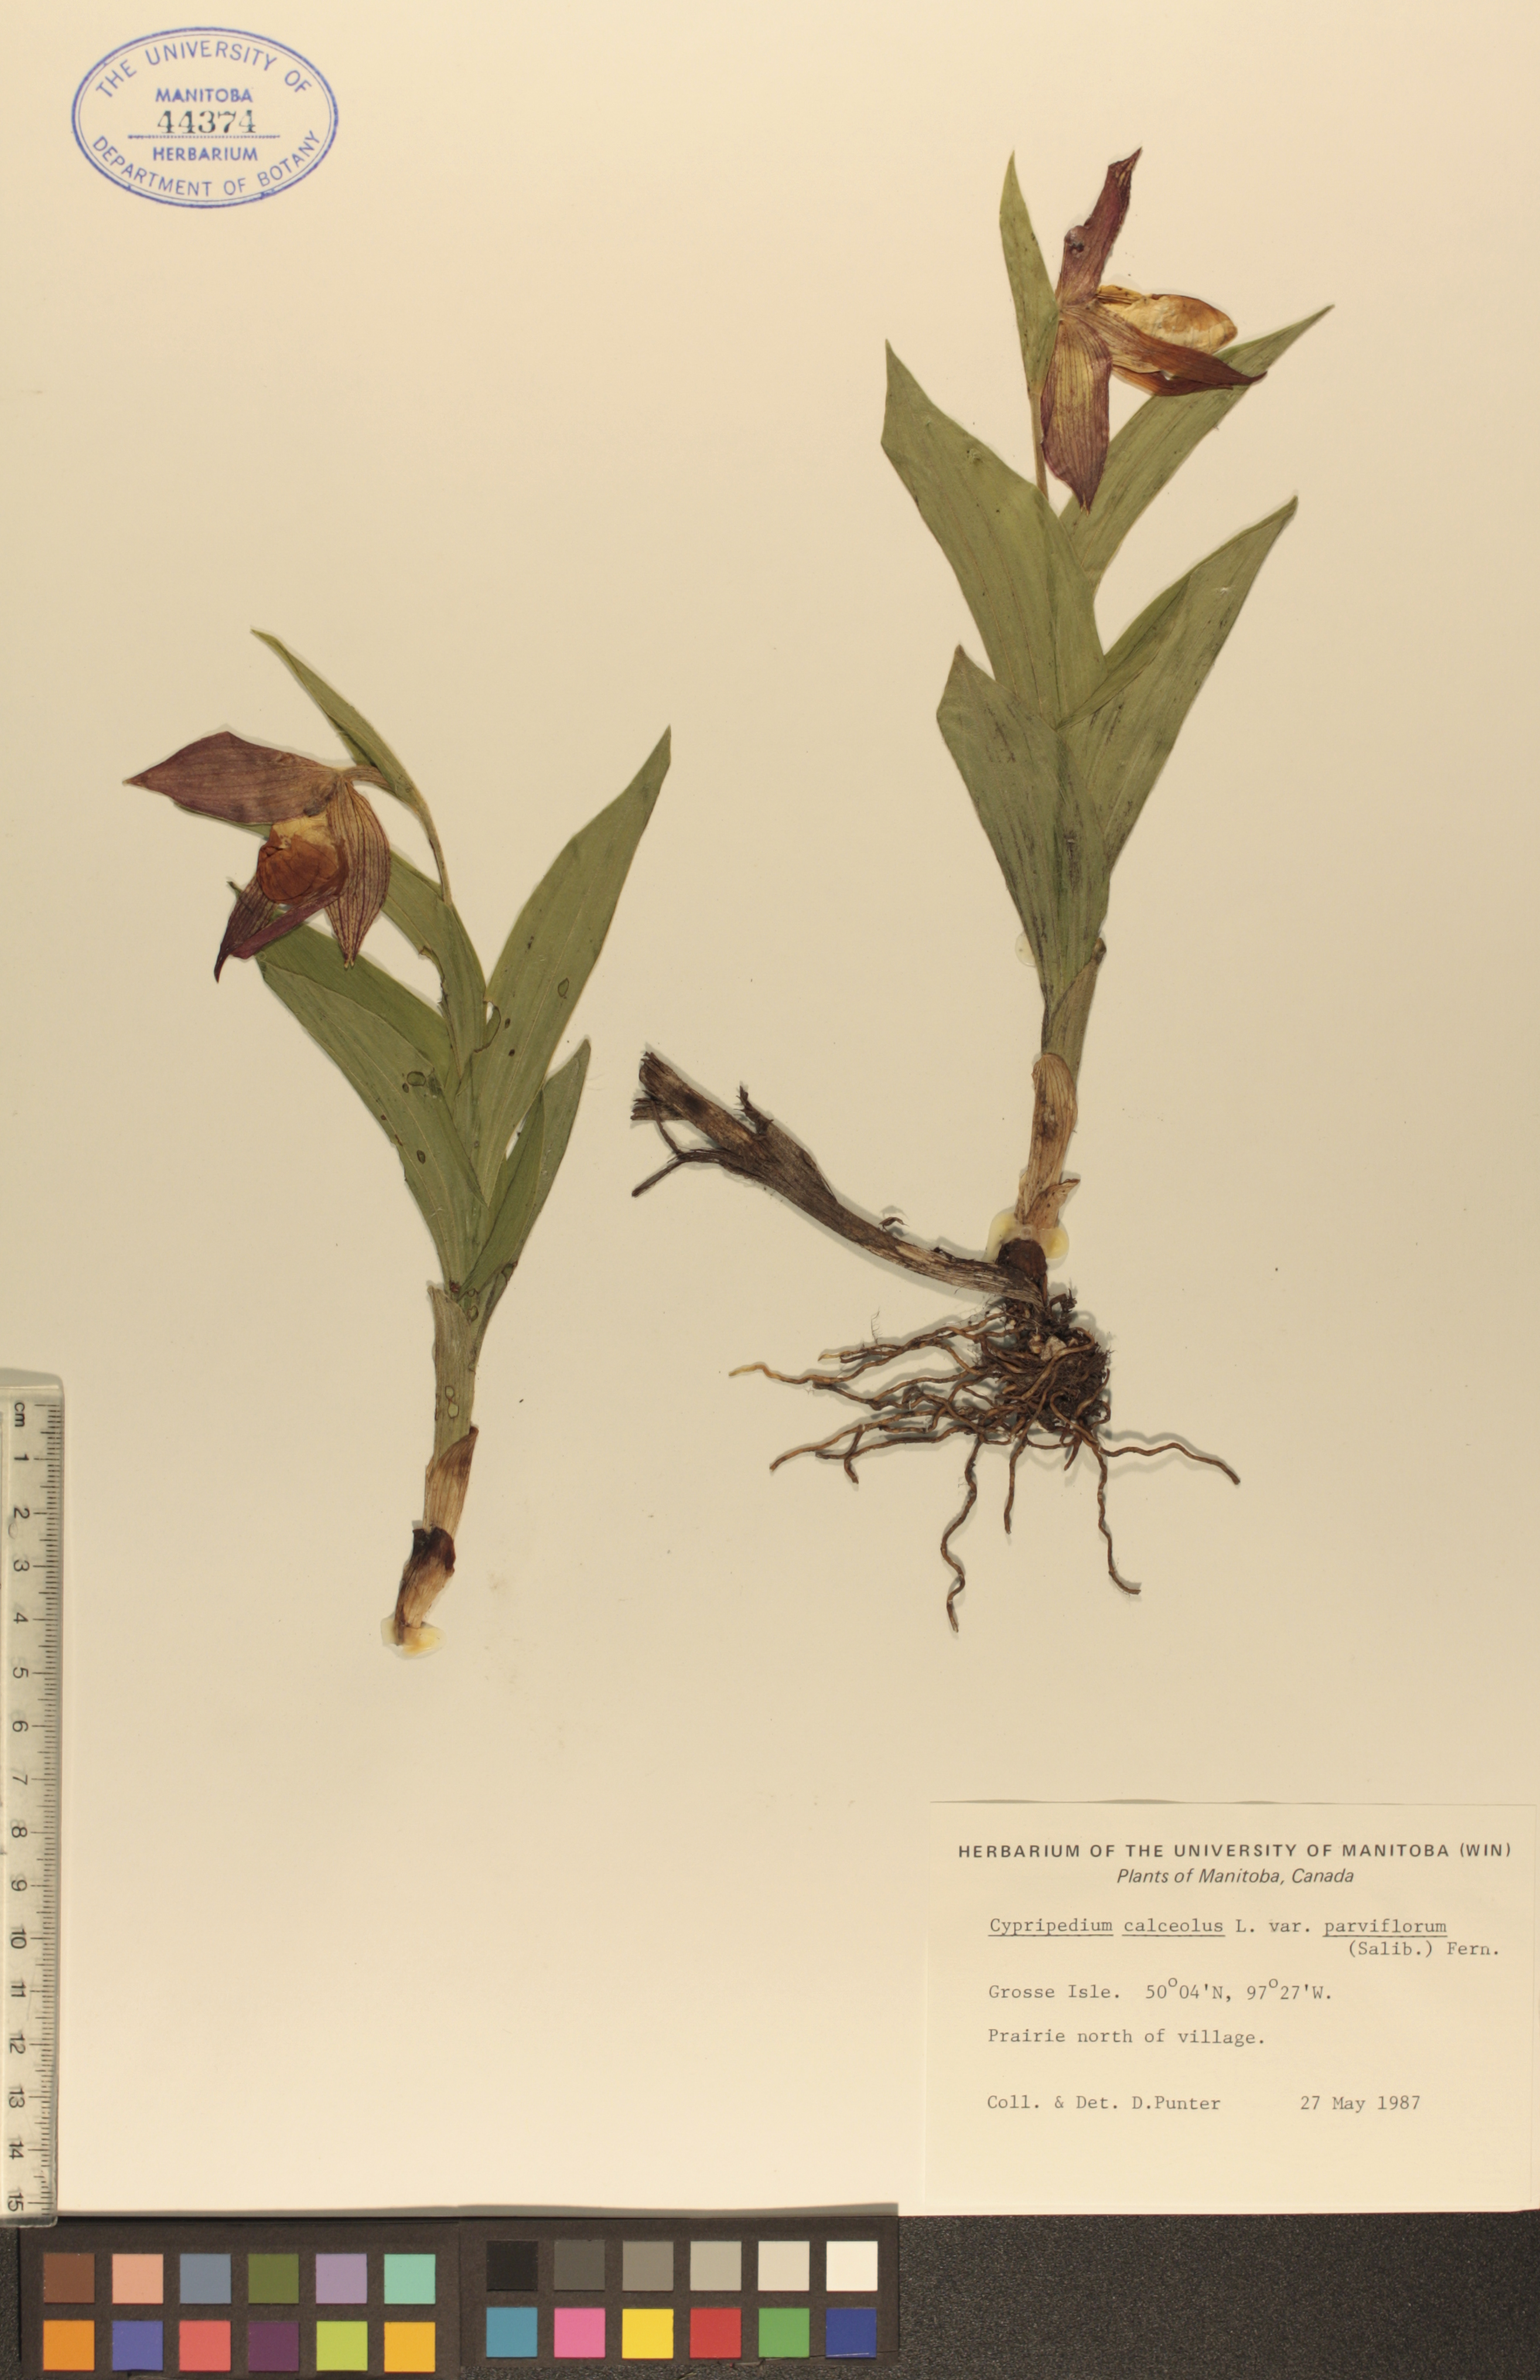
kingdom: Plantae
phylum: Tracheophyta
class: Liliopsida
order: Asparagales
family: Orchidaceae
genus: Cypripedium
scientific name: Cypripedium parviflorum
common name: American yellow lady's-slipper
